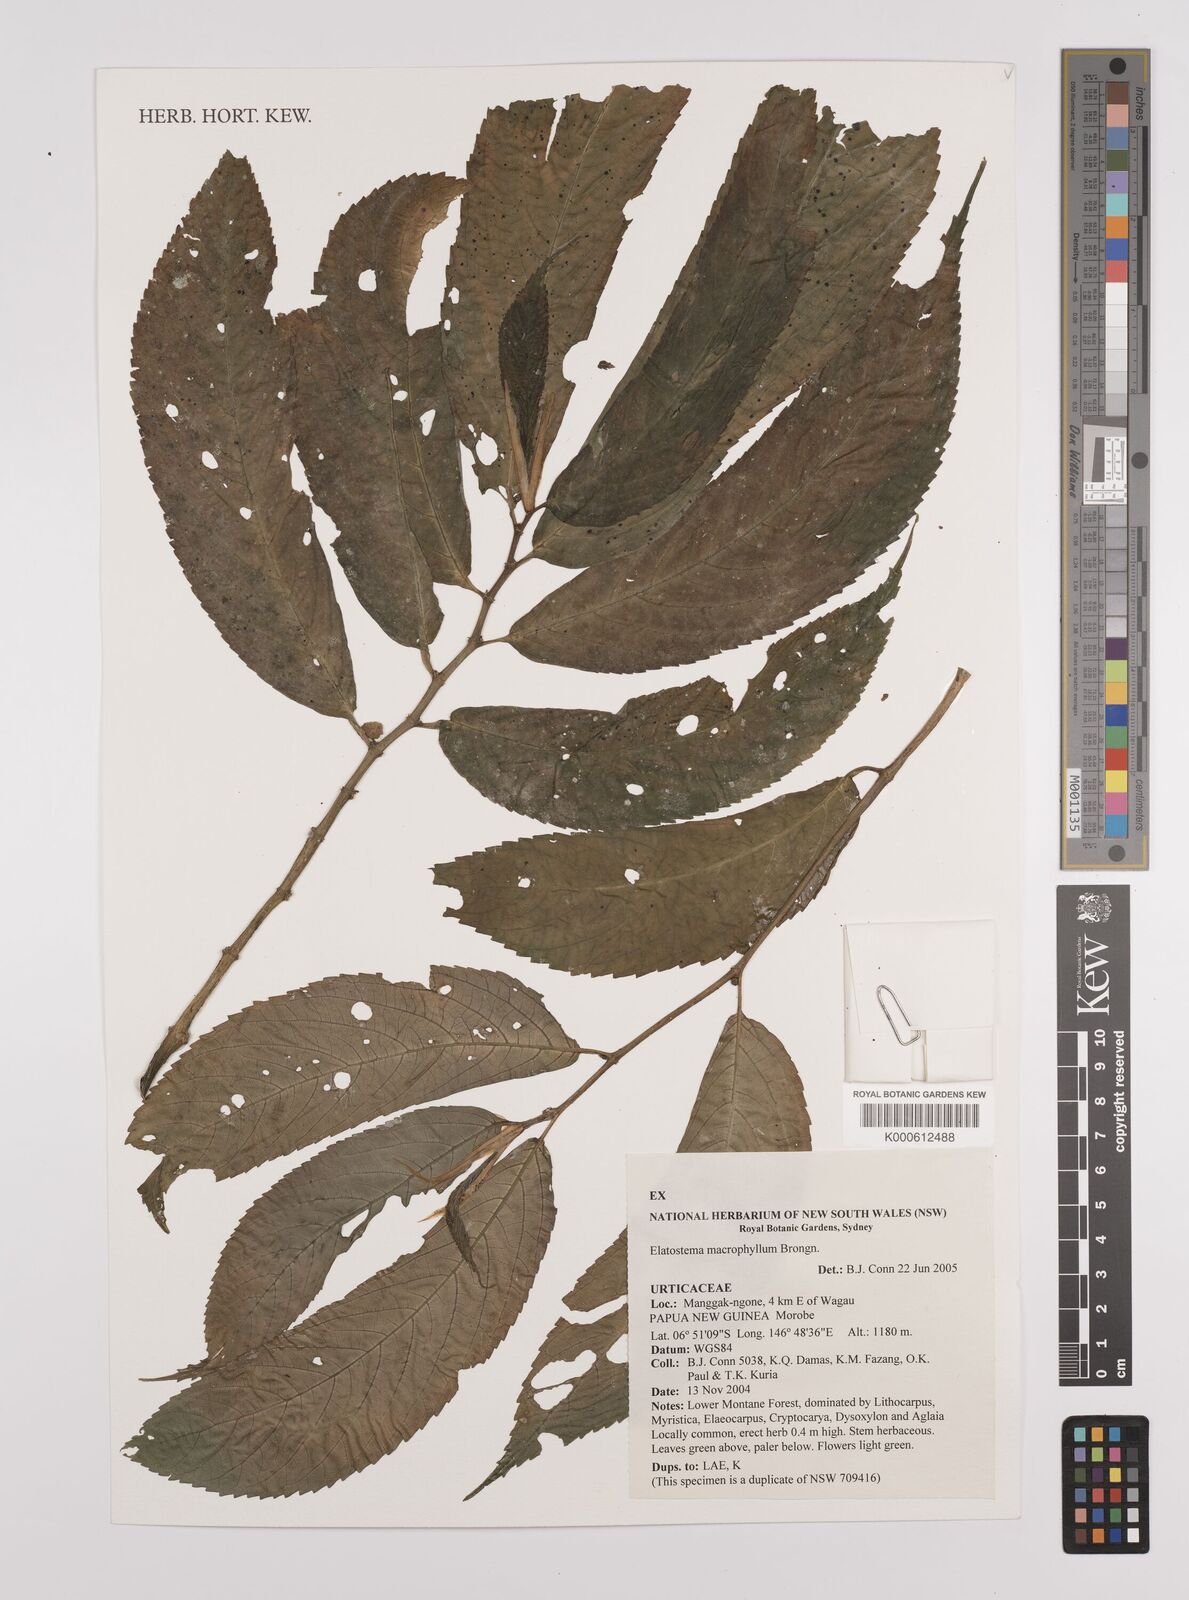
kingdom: Plantae
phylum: Tracheophyta
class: Magnoliopsida
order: Rosales
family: Urticaceae
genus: Elatostema
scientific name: Elatostema macrophyllum
